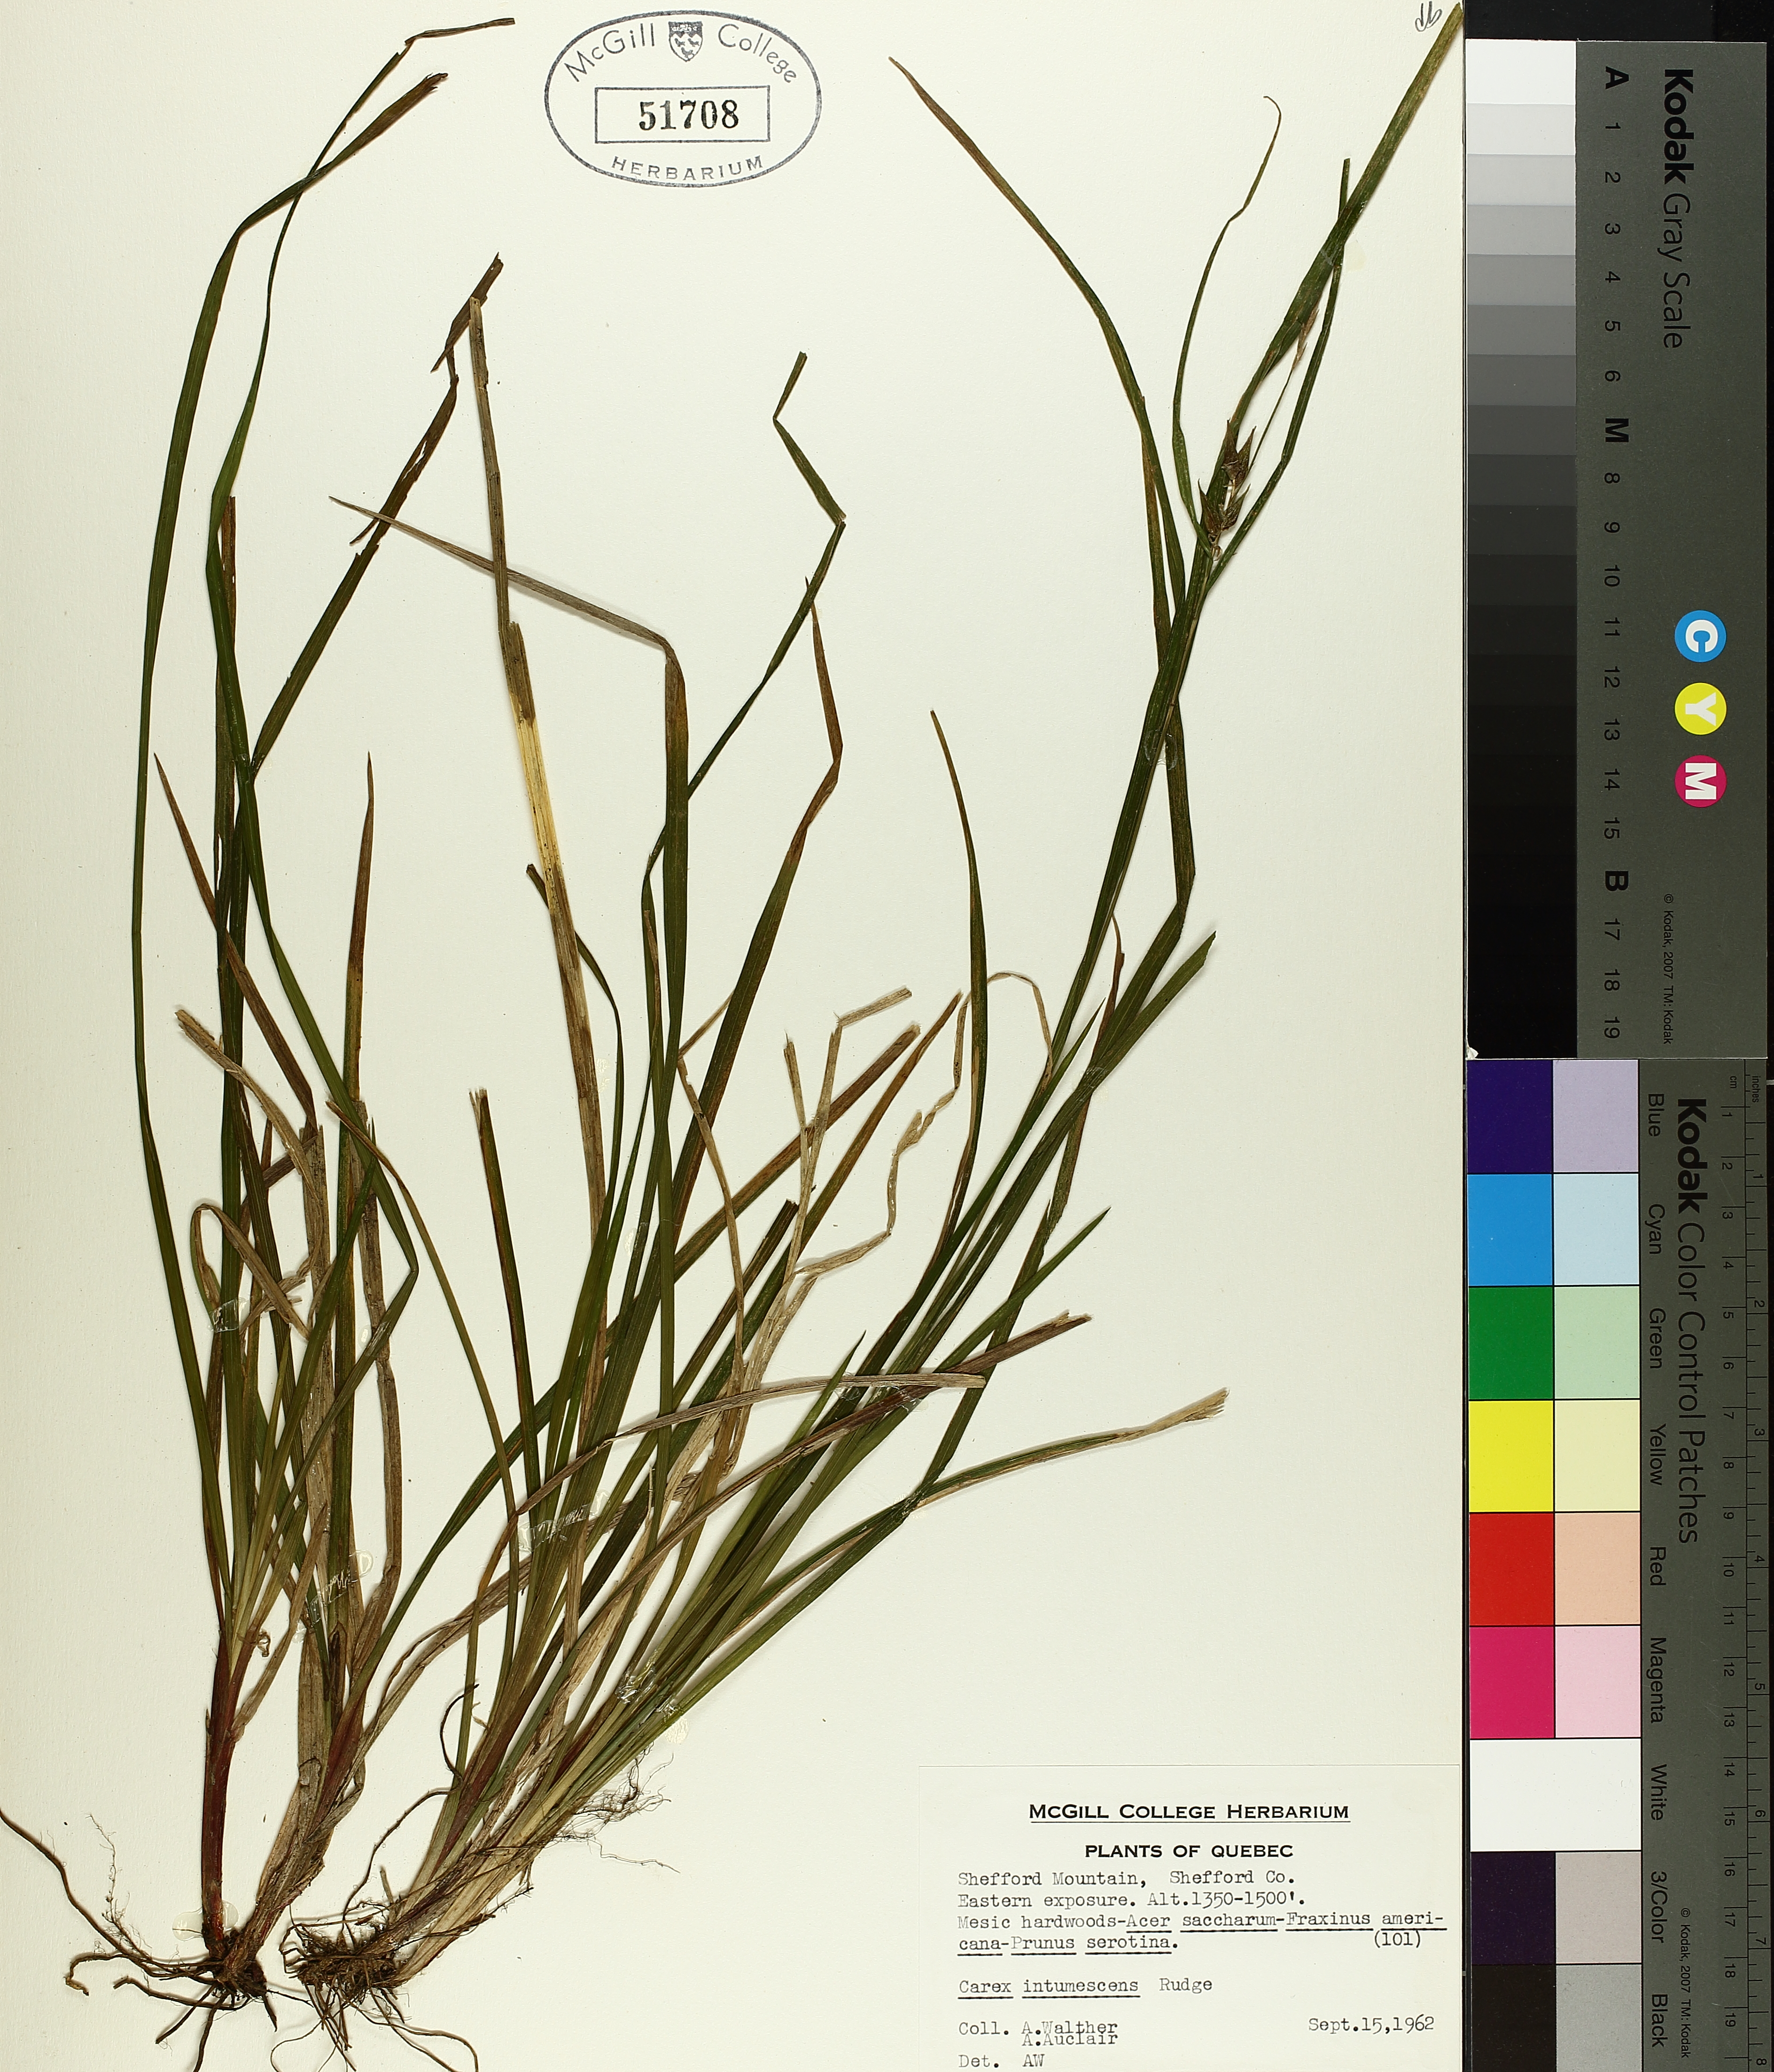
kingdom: Plantae
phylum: Tracheophyta
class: Liliopsida
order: Poales
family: Cyperaceae
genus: Carex
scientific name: Carex intumescens
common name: Greater bladder sedge
